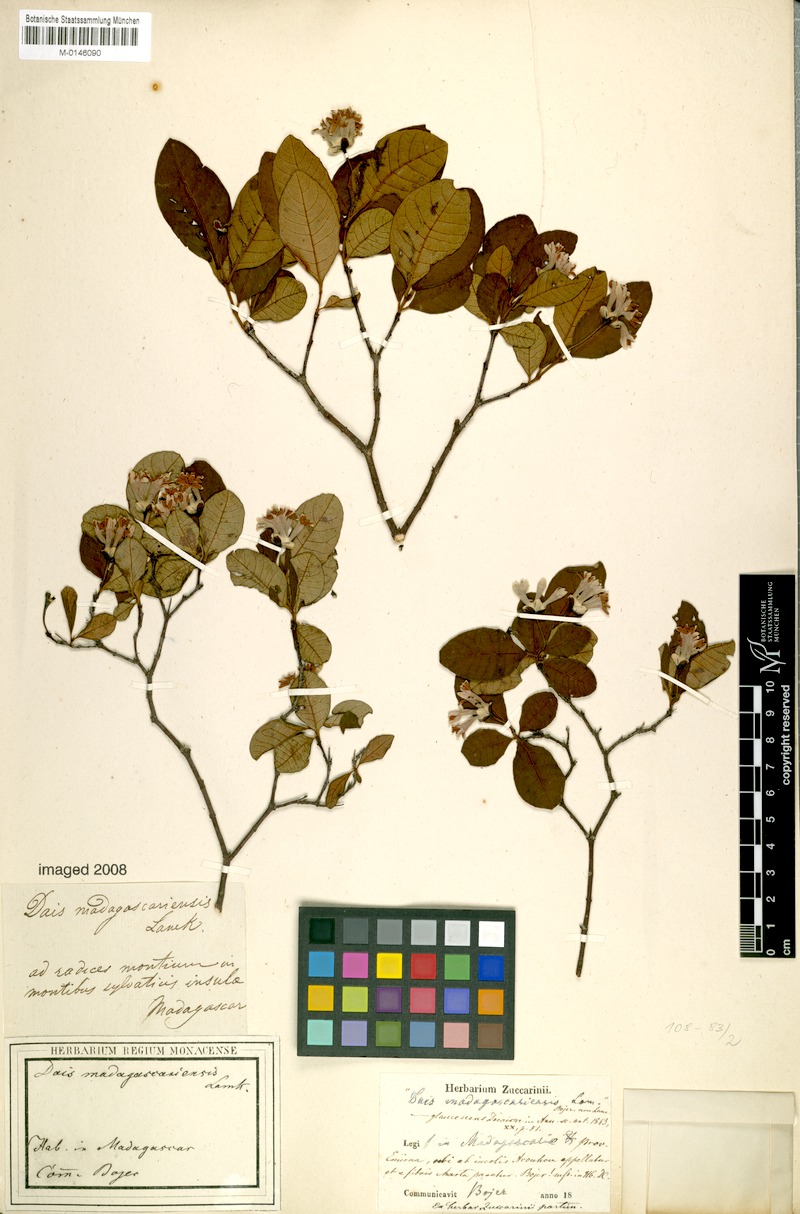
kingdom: Plantae
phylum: Tracheophyta
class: Magnoliopsida
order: Malvales
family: Thymelaeaceae
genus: Dais
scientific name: Dais glaucescens
